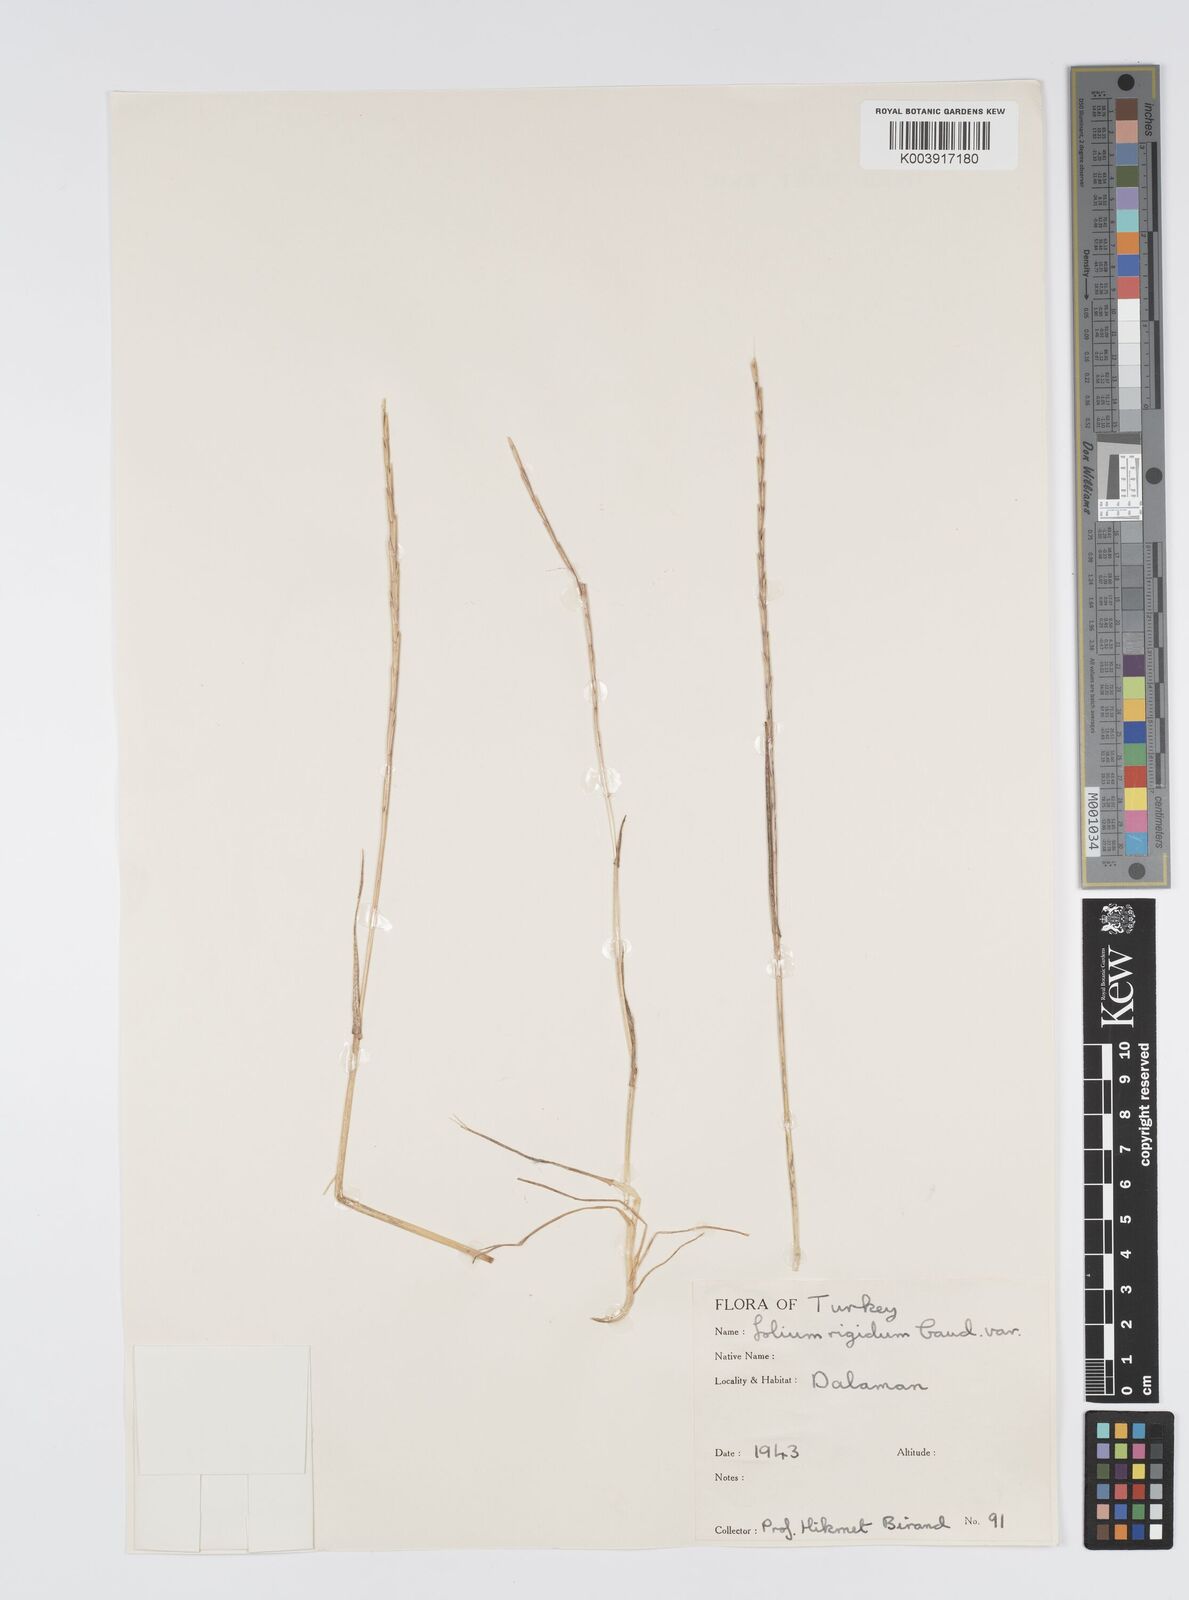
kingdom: Plantae
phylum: Tracheophyta
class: Liliopsida
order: Poales
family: Poaceae
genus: Lolium
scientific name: Lolium rigidum
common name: Wimmera ryegrass
